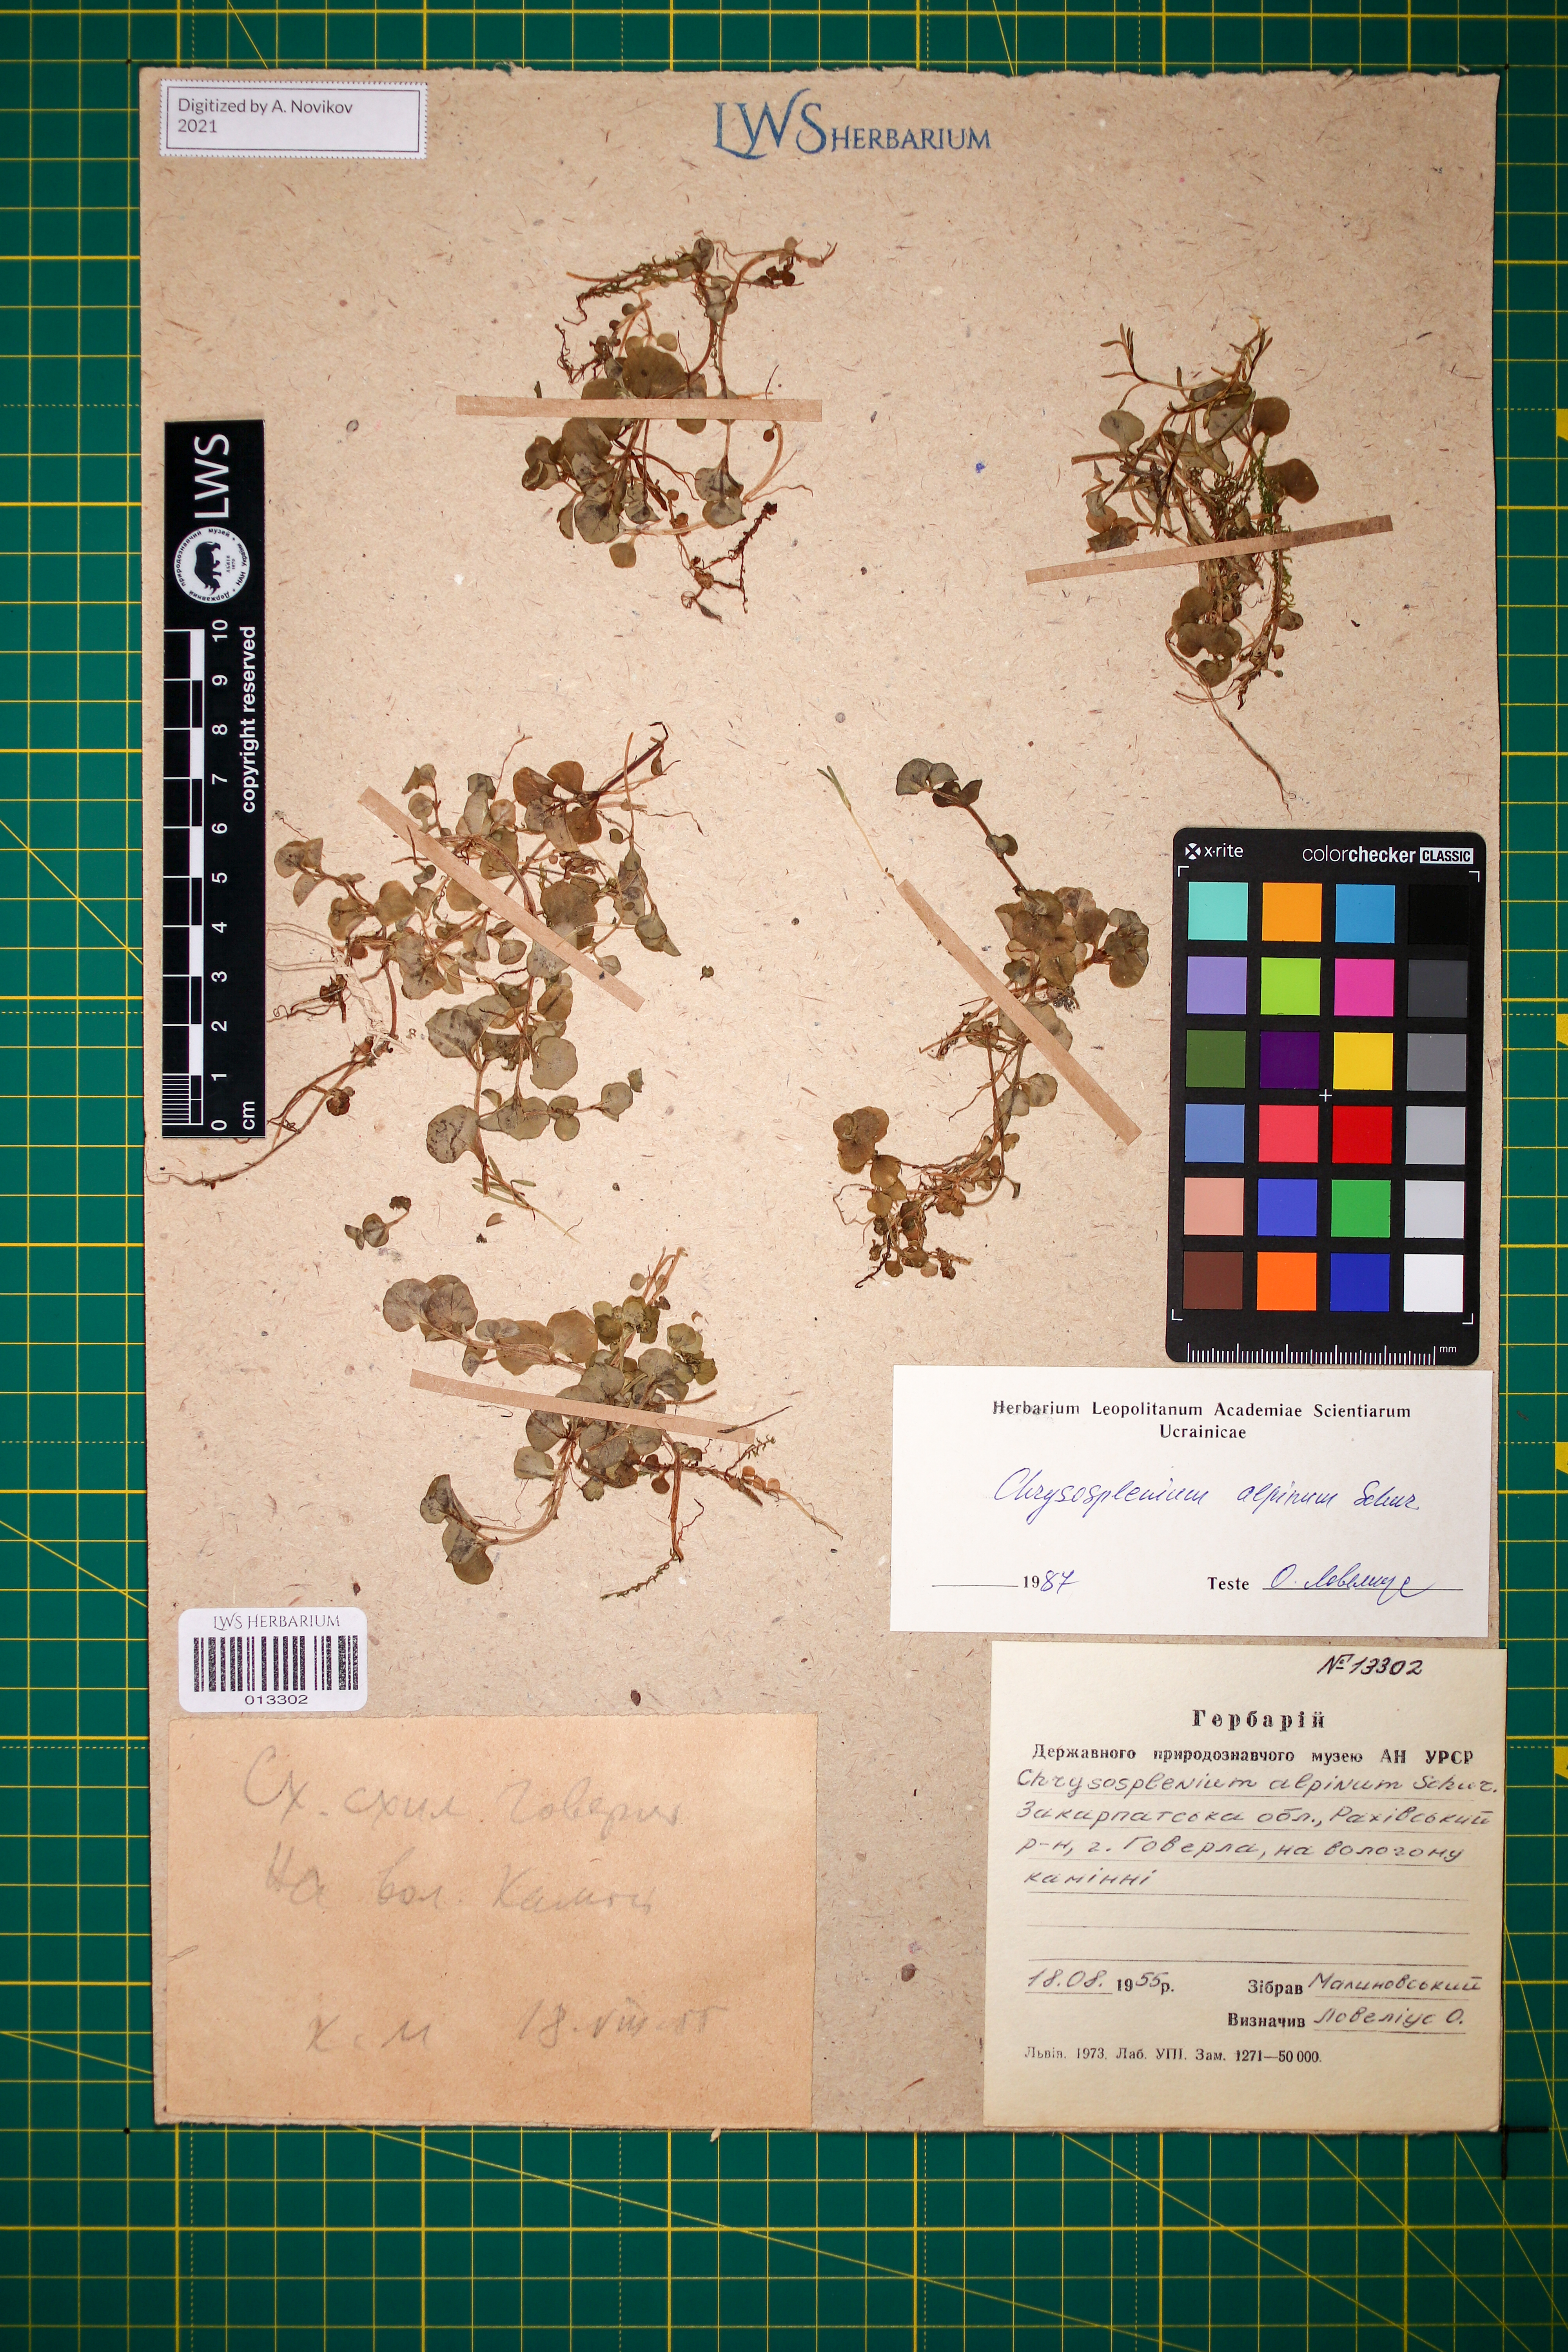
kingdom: Plantae
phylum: Tracheophyta
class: Magnoliopsida
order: Saxifragales
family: Saxifragaceae
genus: Chrysosplenium
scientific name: Chrysosplenium alpinum
